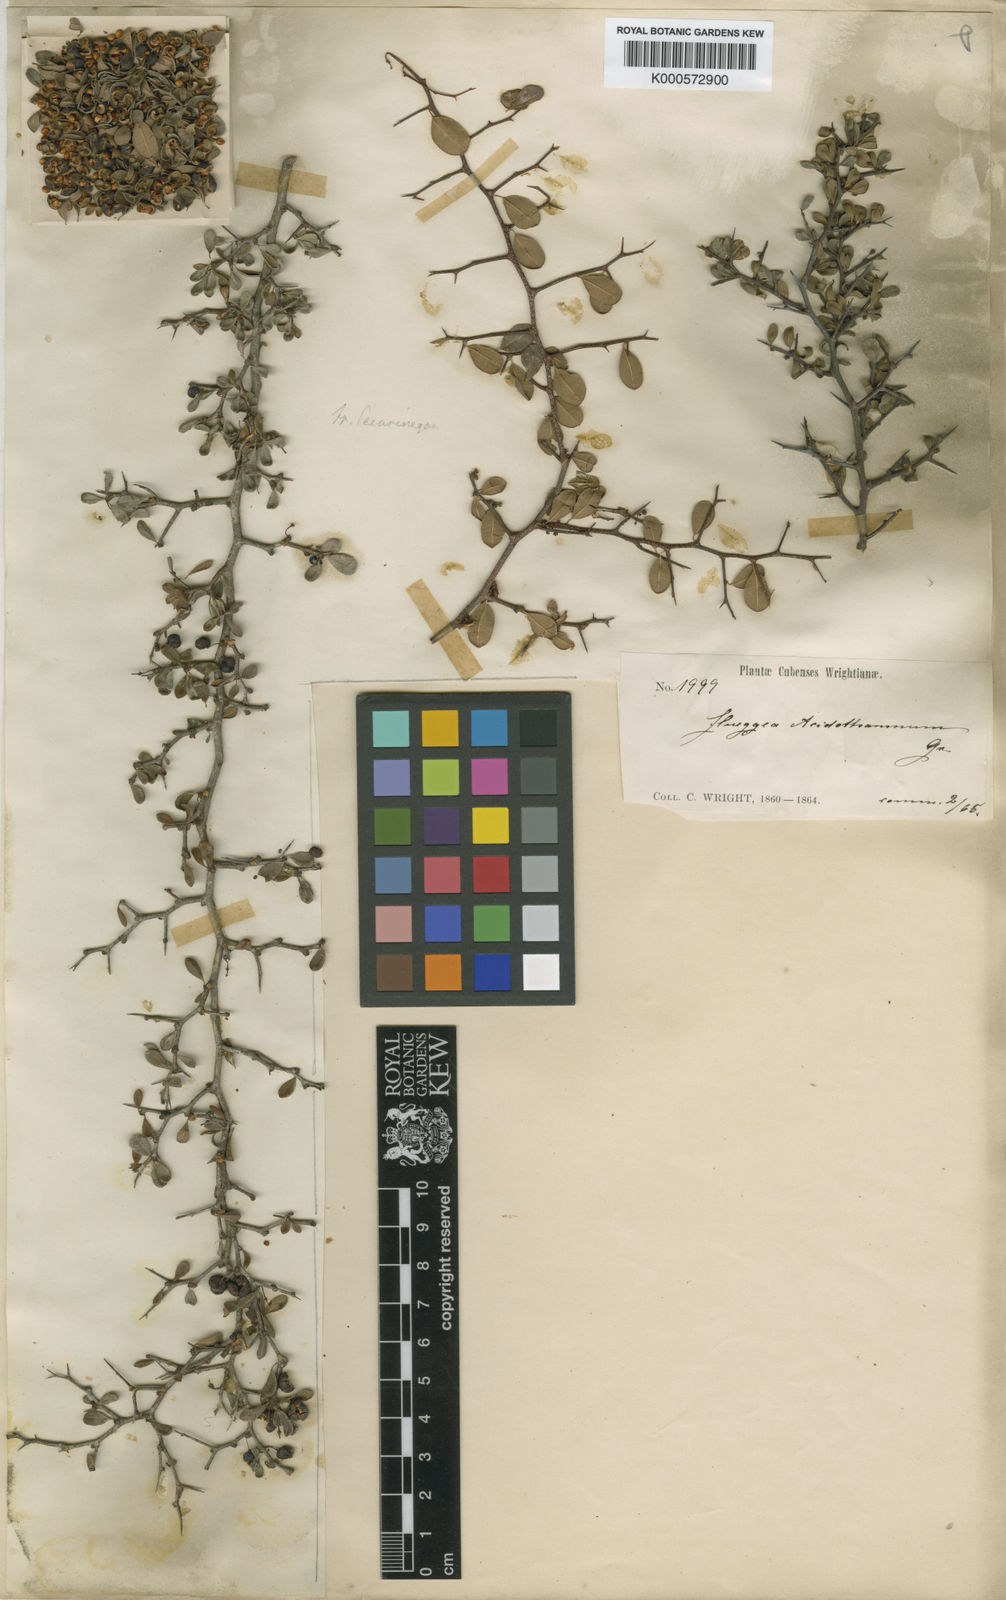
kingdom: Plantae
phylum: Tracheophyta
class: Magnoliopsida
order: Malpighiales
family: Phyllanthaceae
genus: Flueggea
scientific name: Flueggea acidoton
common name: Simpleleaf bushweed
